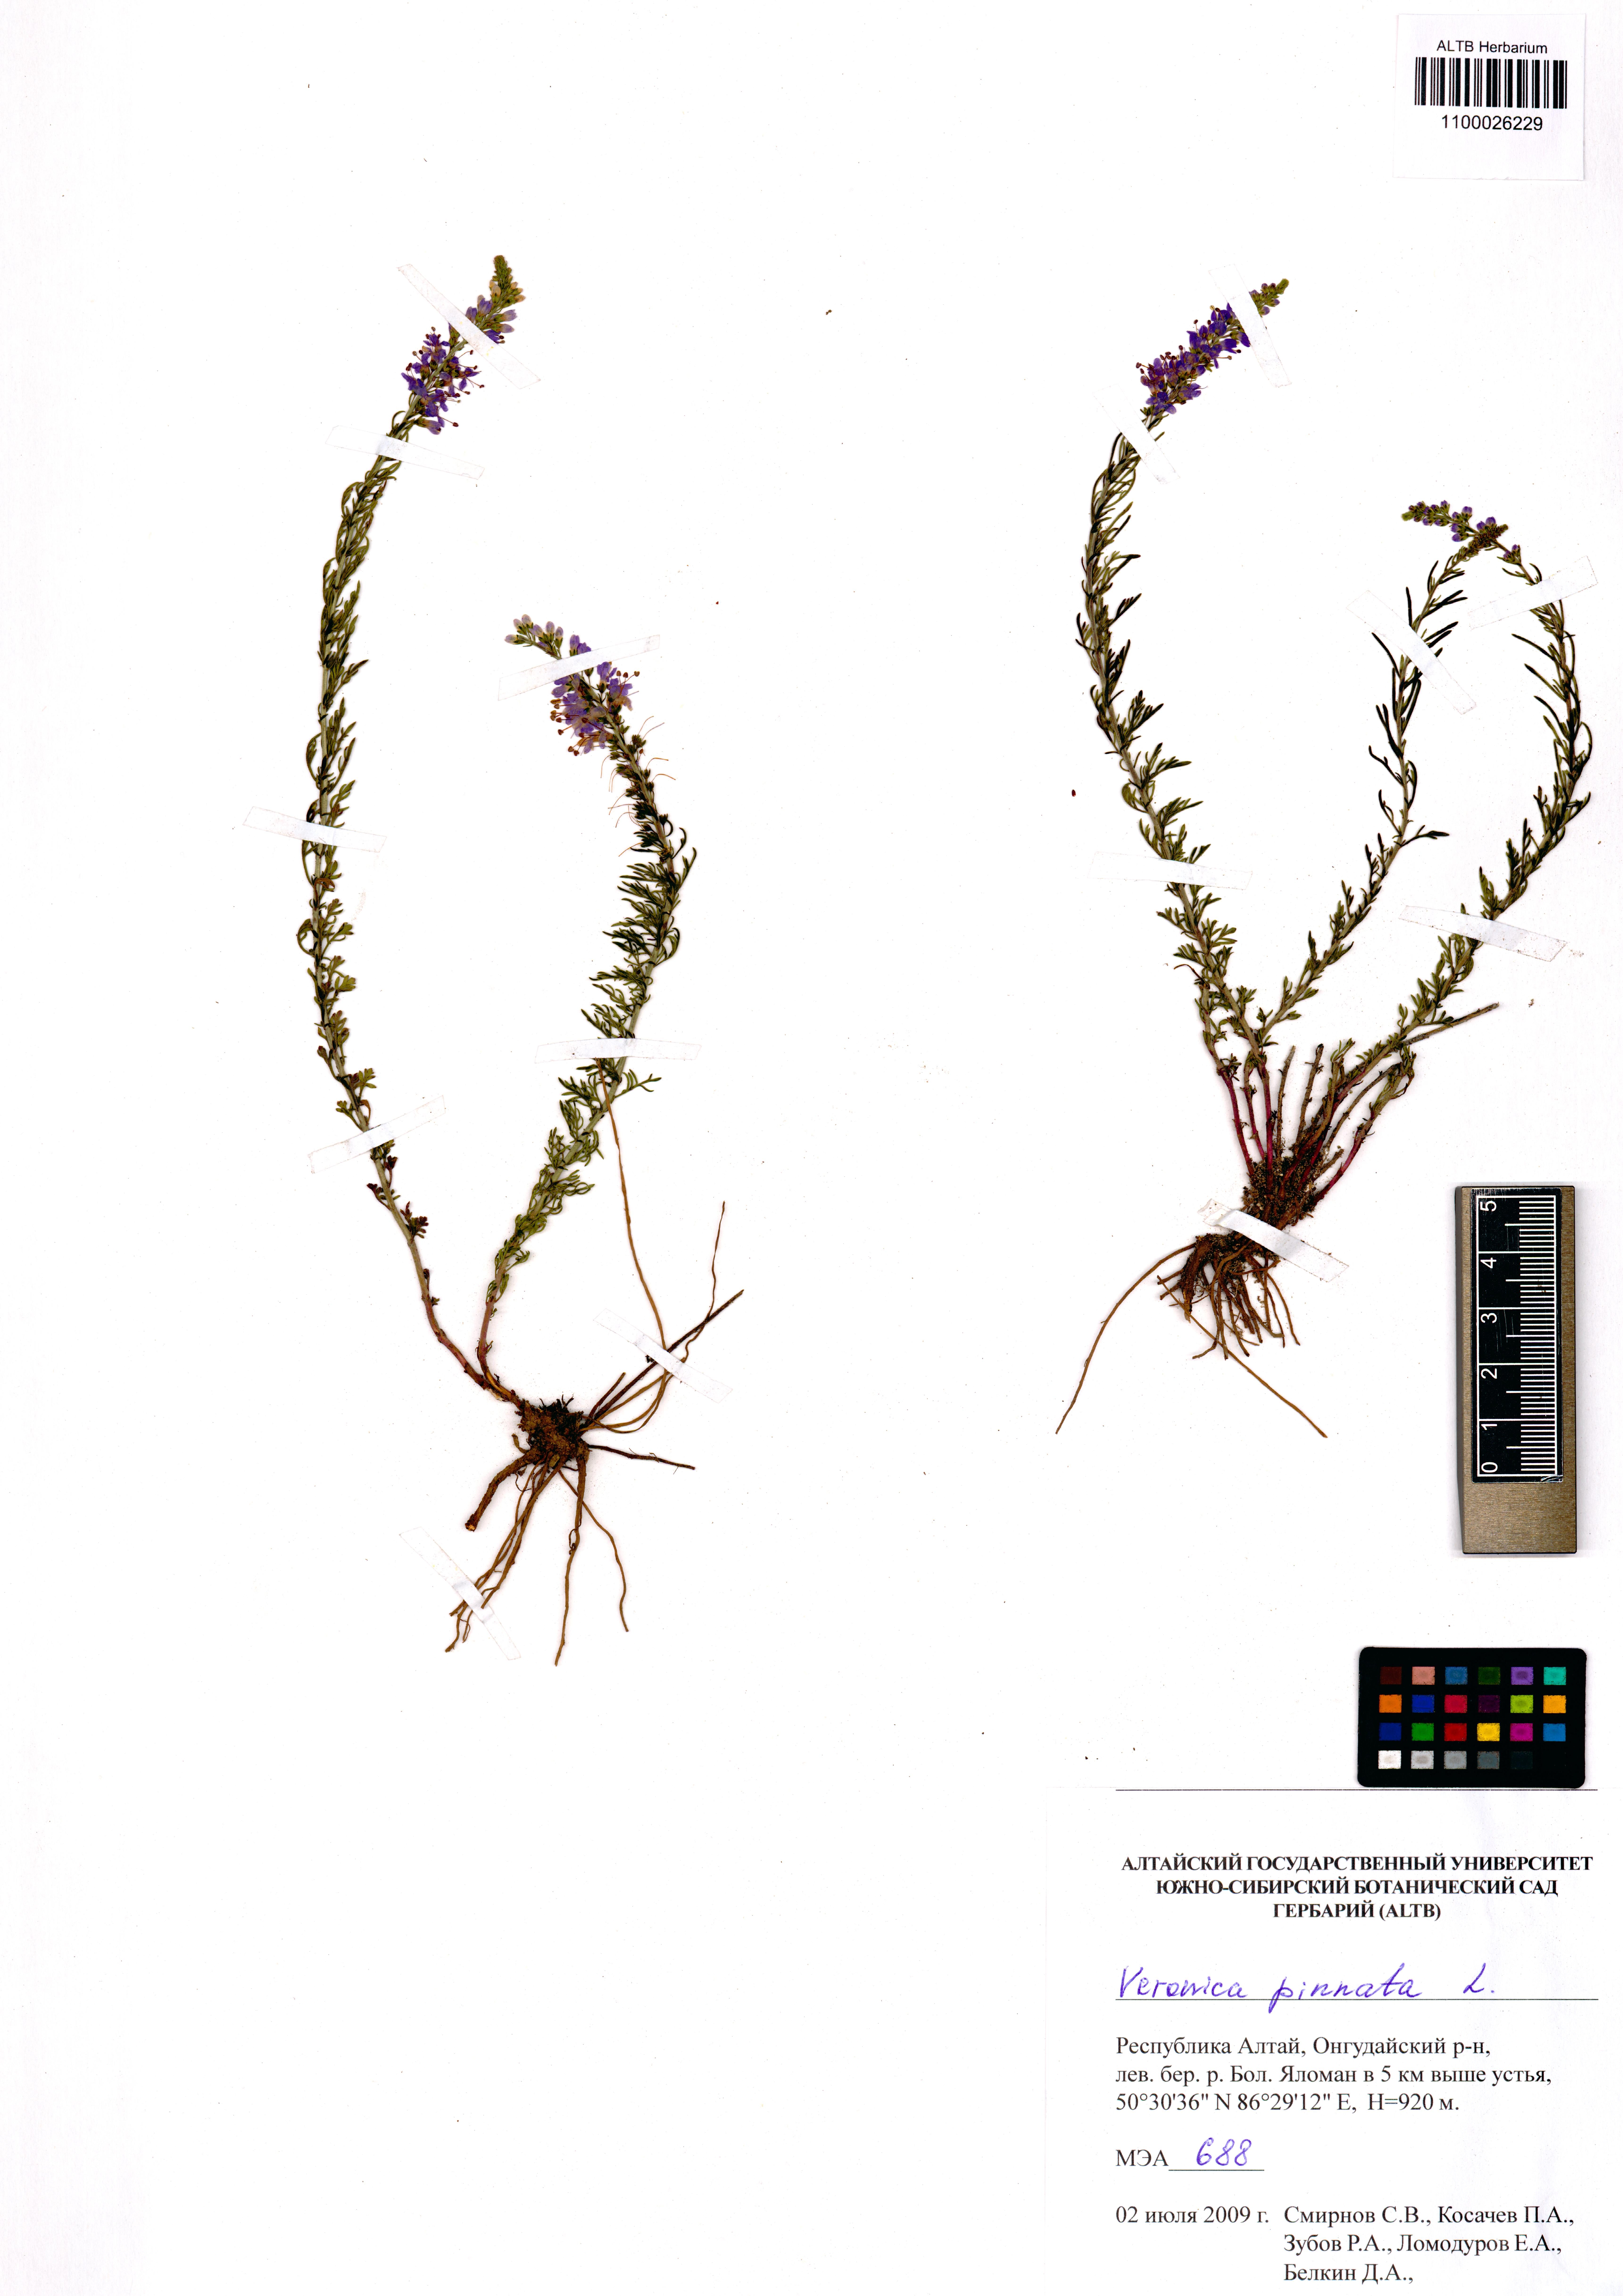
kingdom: Plantae
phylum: Tracheophyta
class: Magnoliopsida
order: Lamiales
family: Plantaginaceae
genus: Veronica
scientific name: Veronica pinnata
